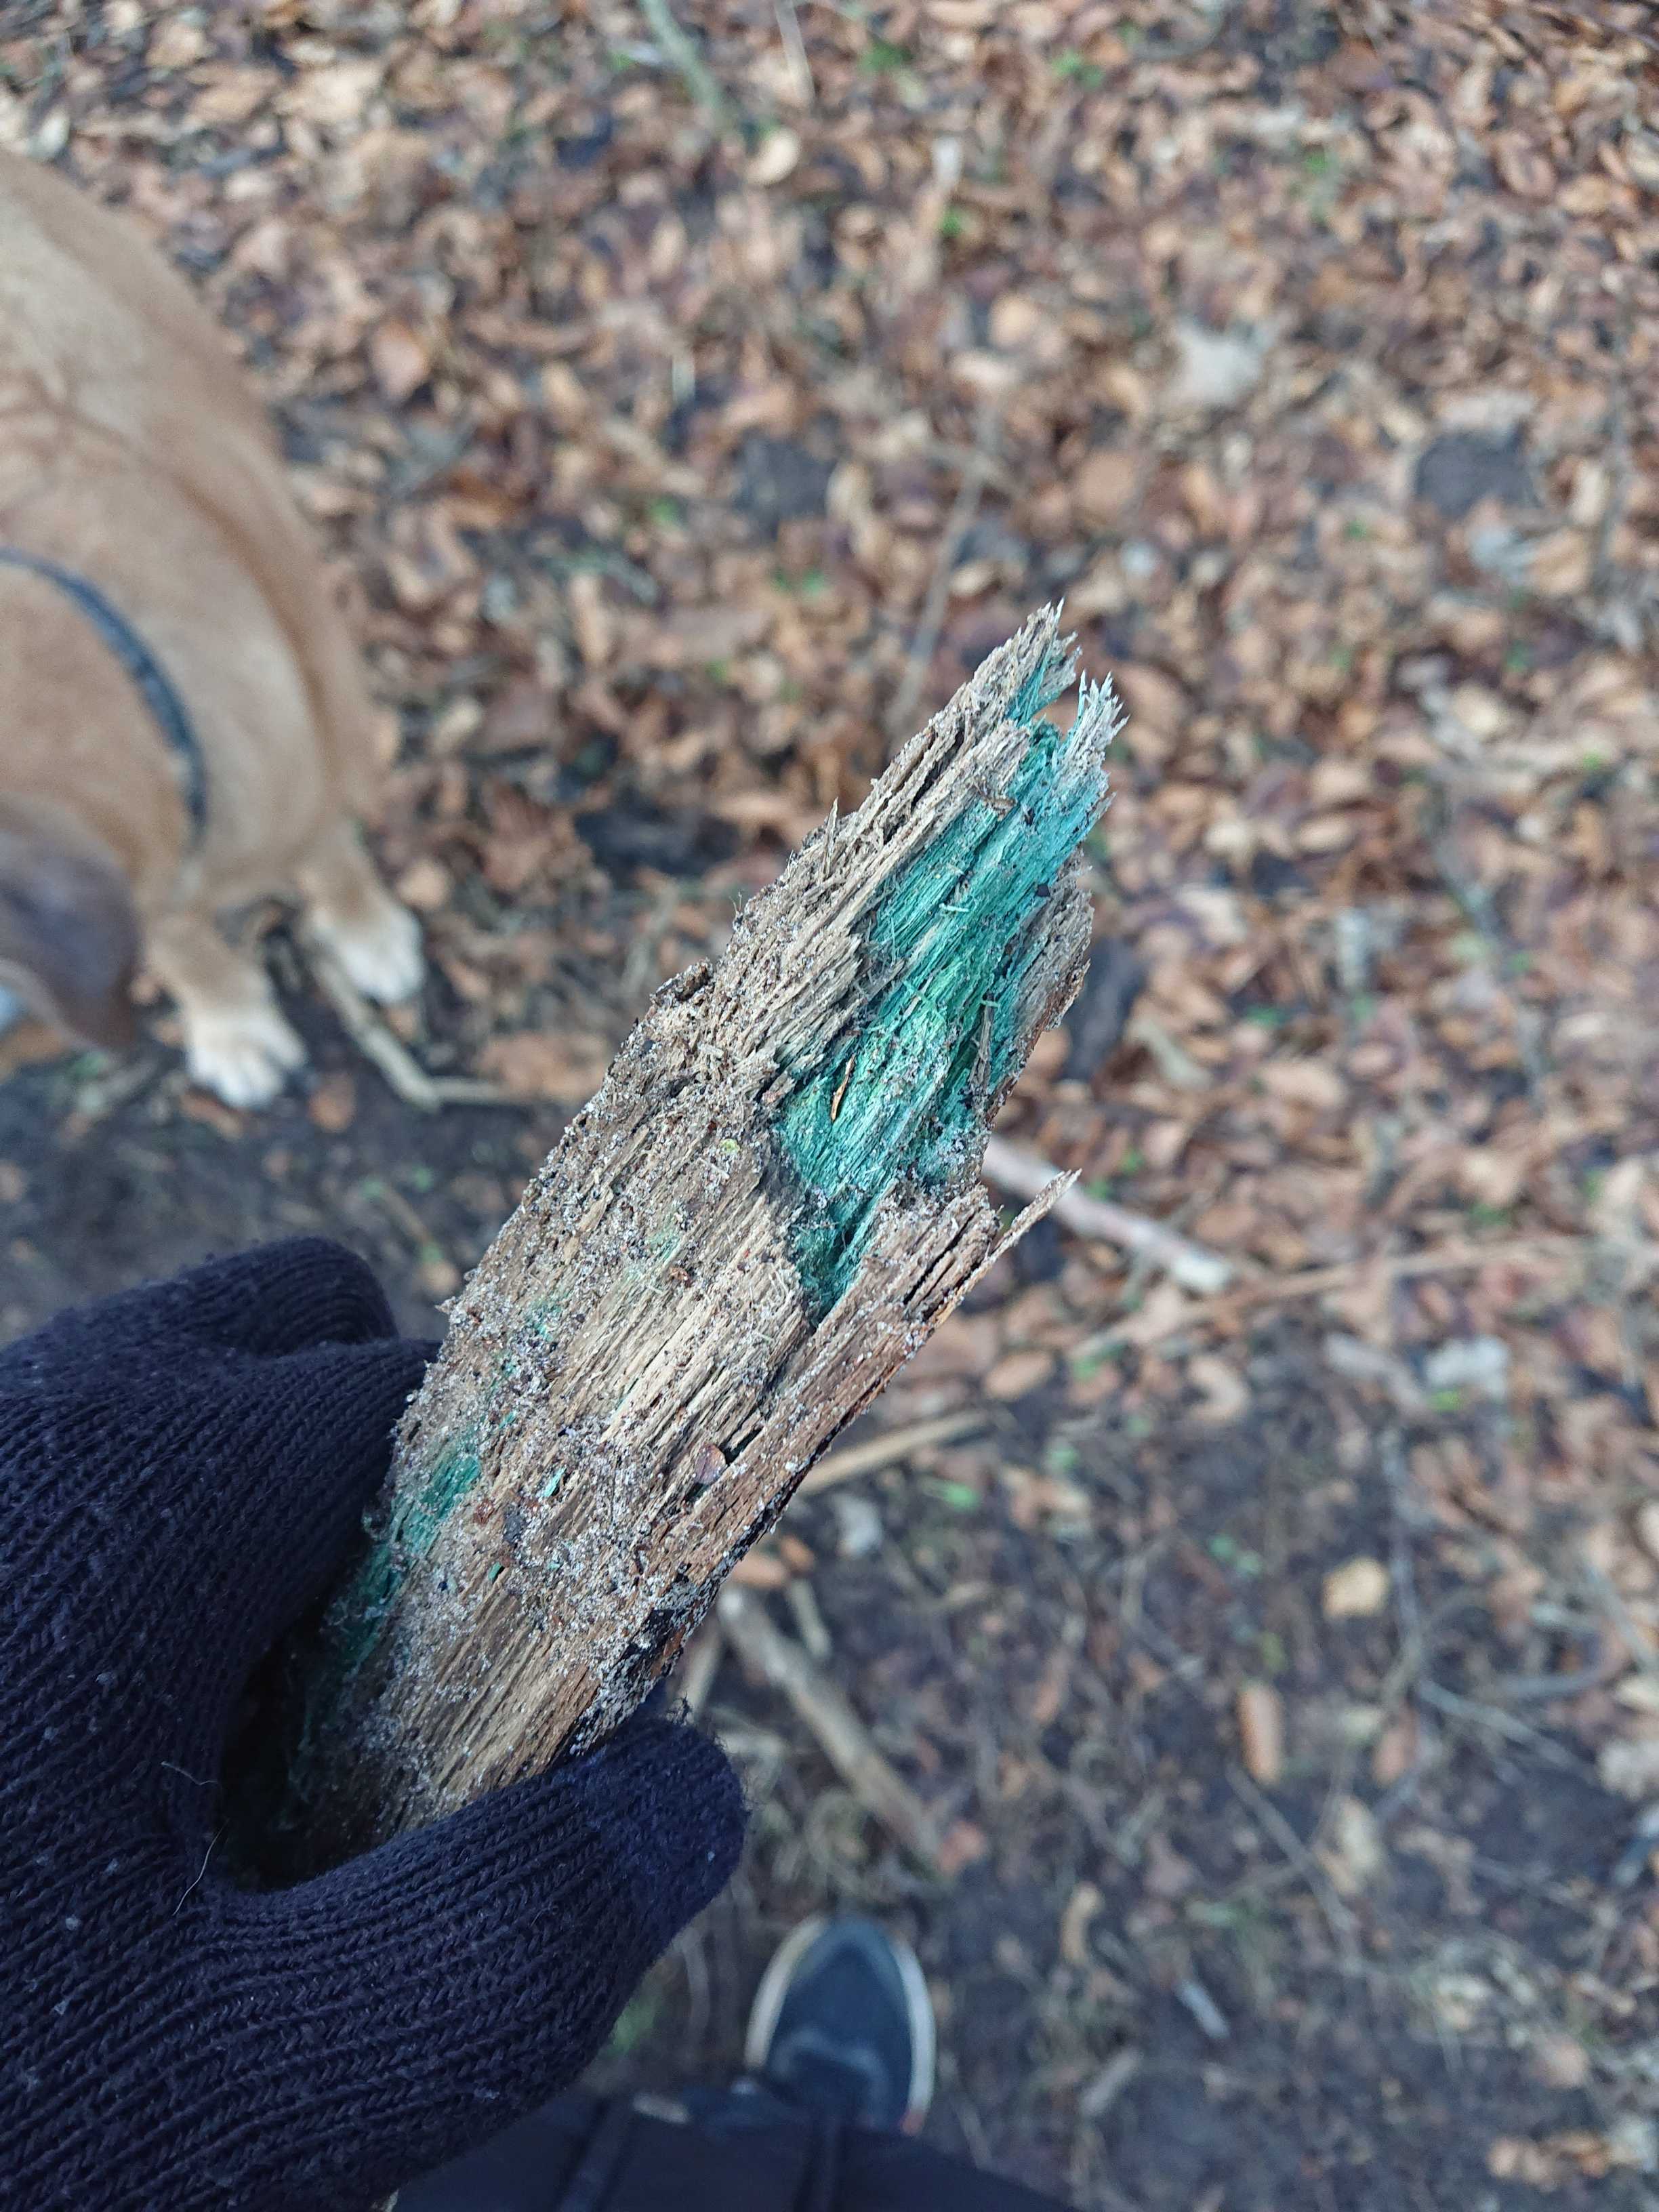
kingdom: Fungi
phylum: Ascomycota
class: Leotiomycetes
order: Helotiales
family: Chlorociboriaceae
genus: Chlorociboria
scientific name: Chlorociboria
